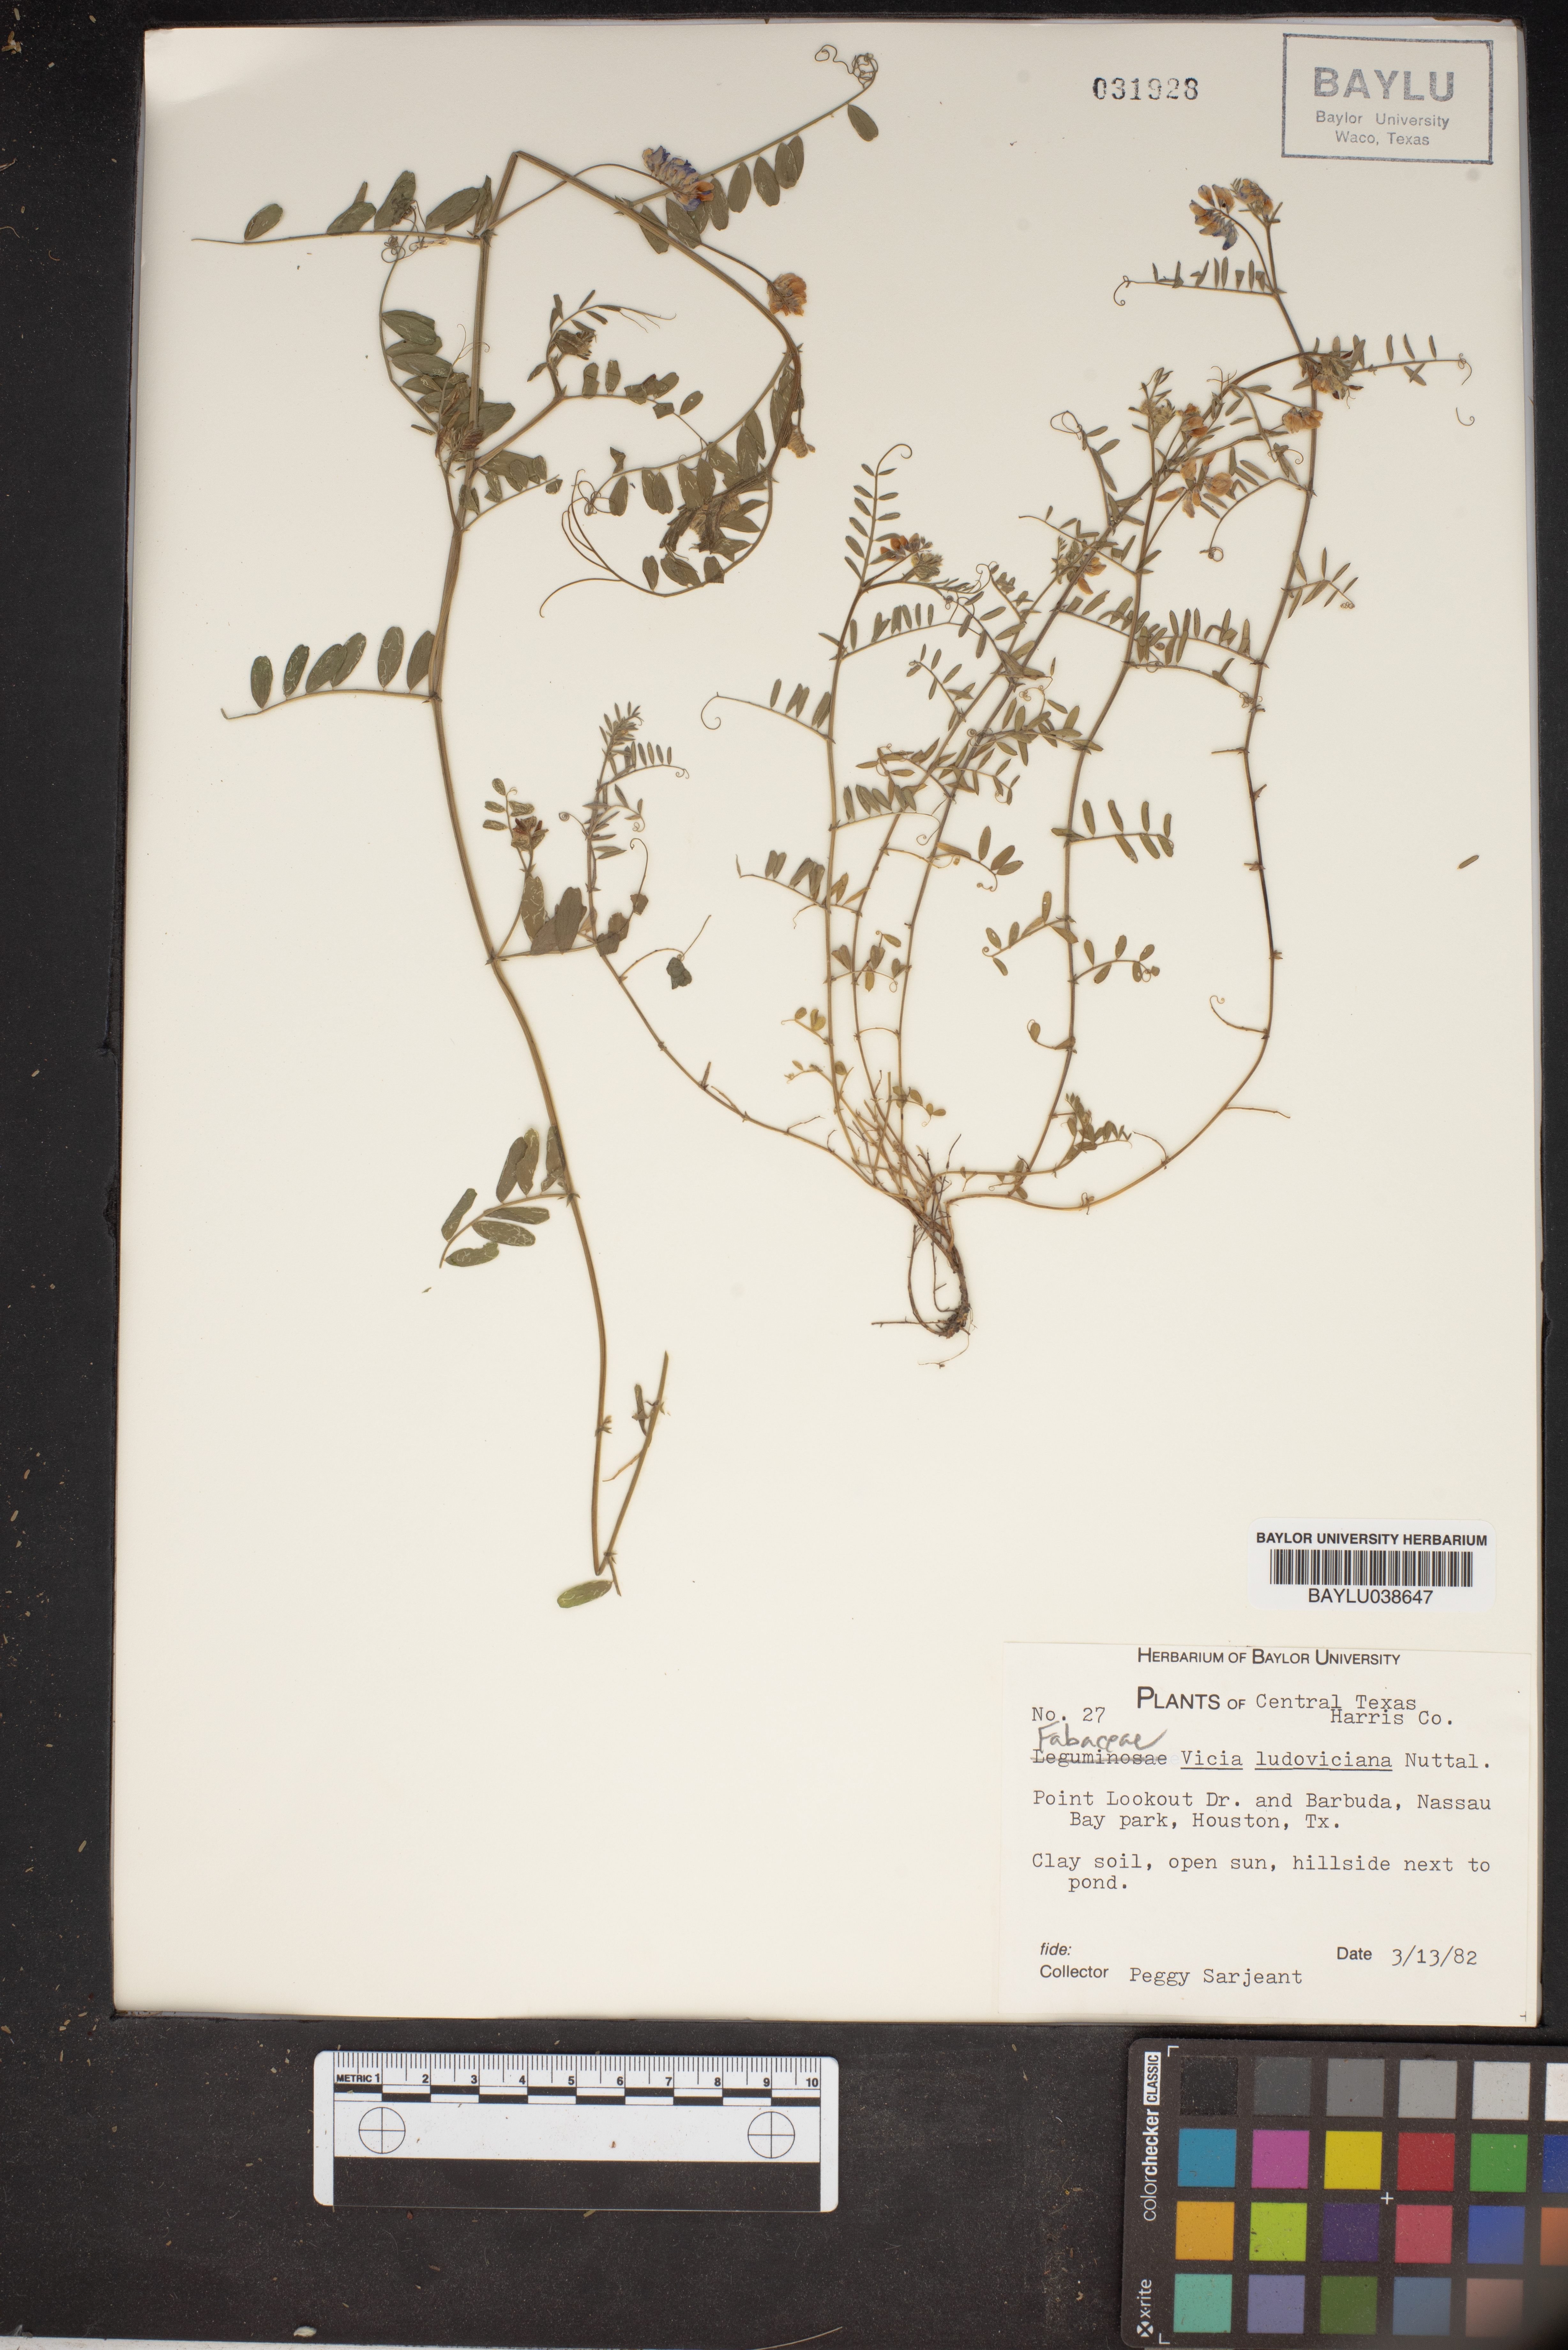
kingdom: Plantae
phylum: Tracheophyta
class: Magnoliopsida
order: Fabales
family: Fabaceae
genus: Vicia
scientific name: Vicia ludoviciana
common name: Louisiana vetch
